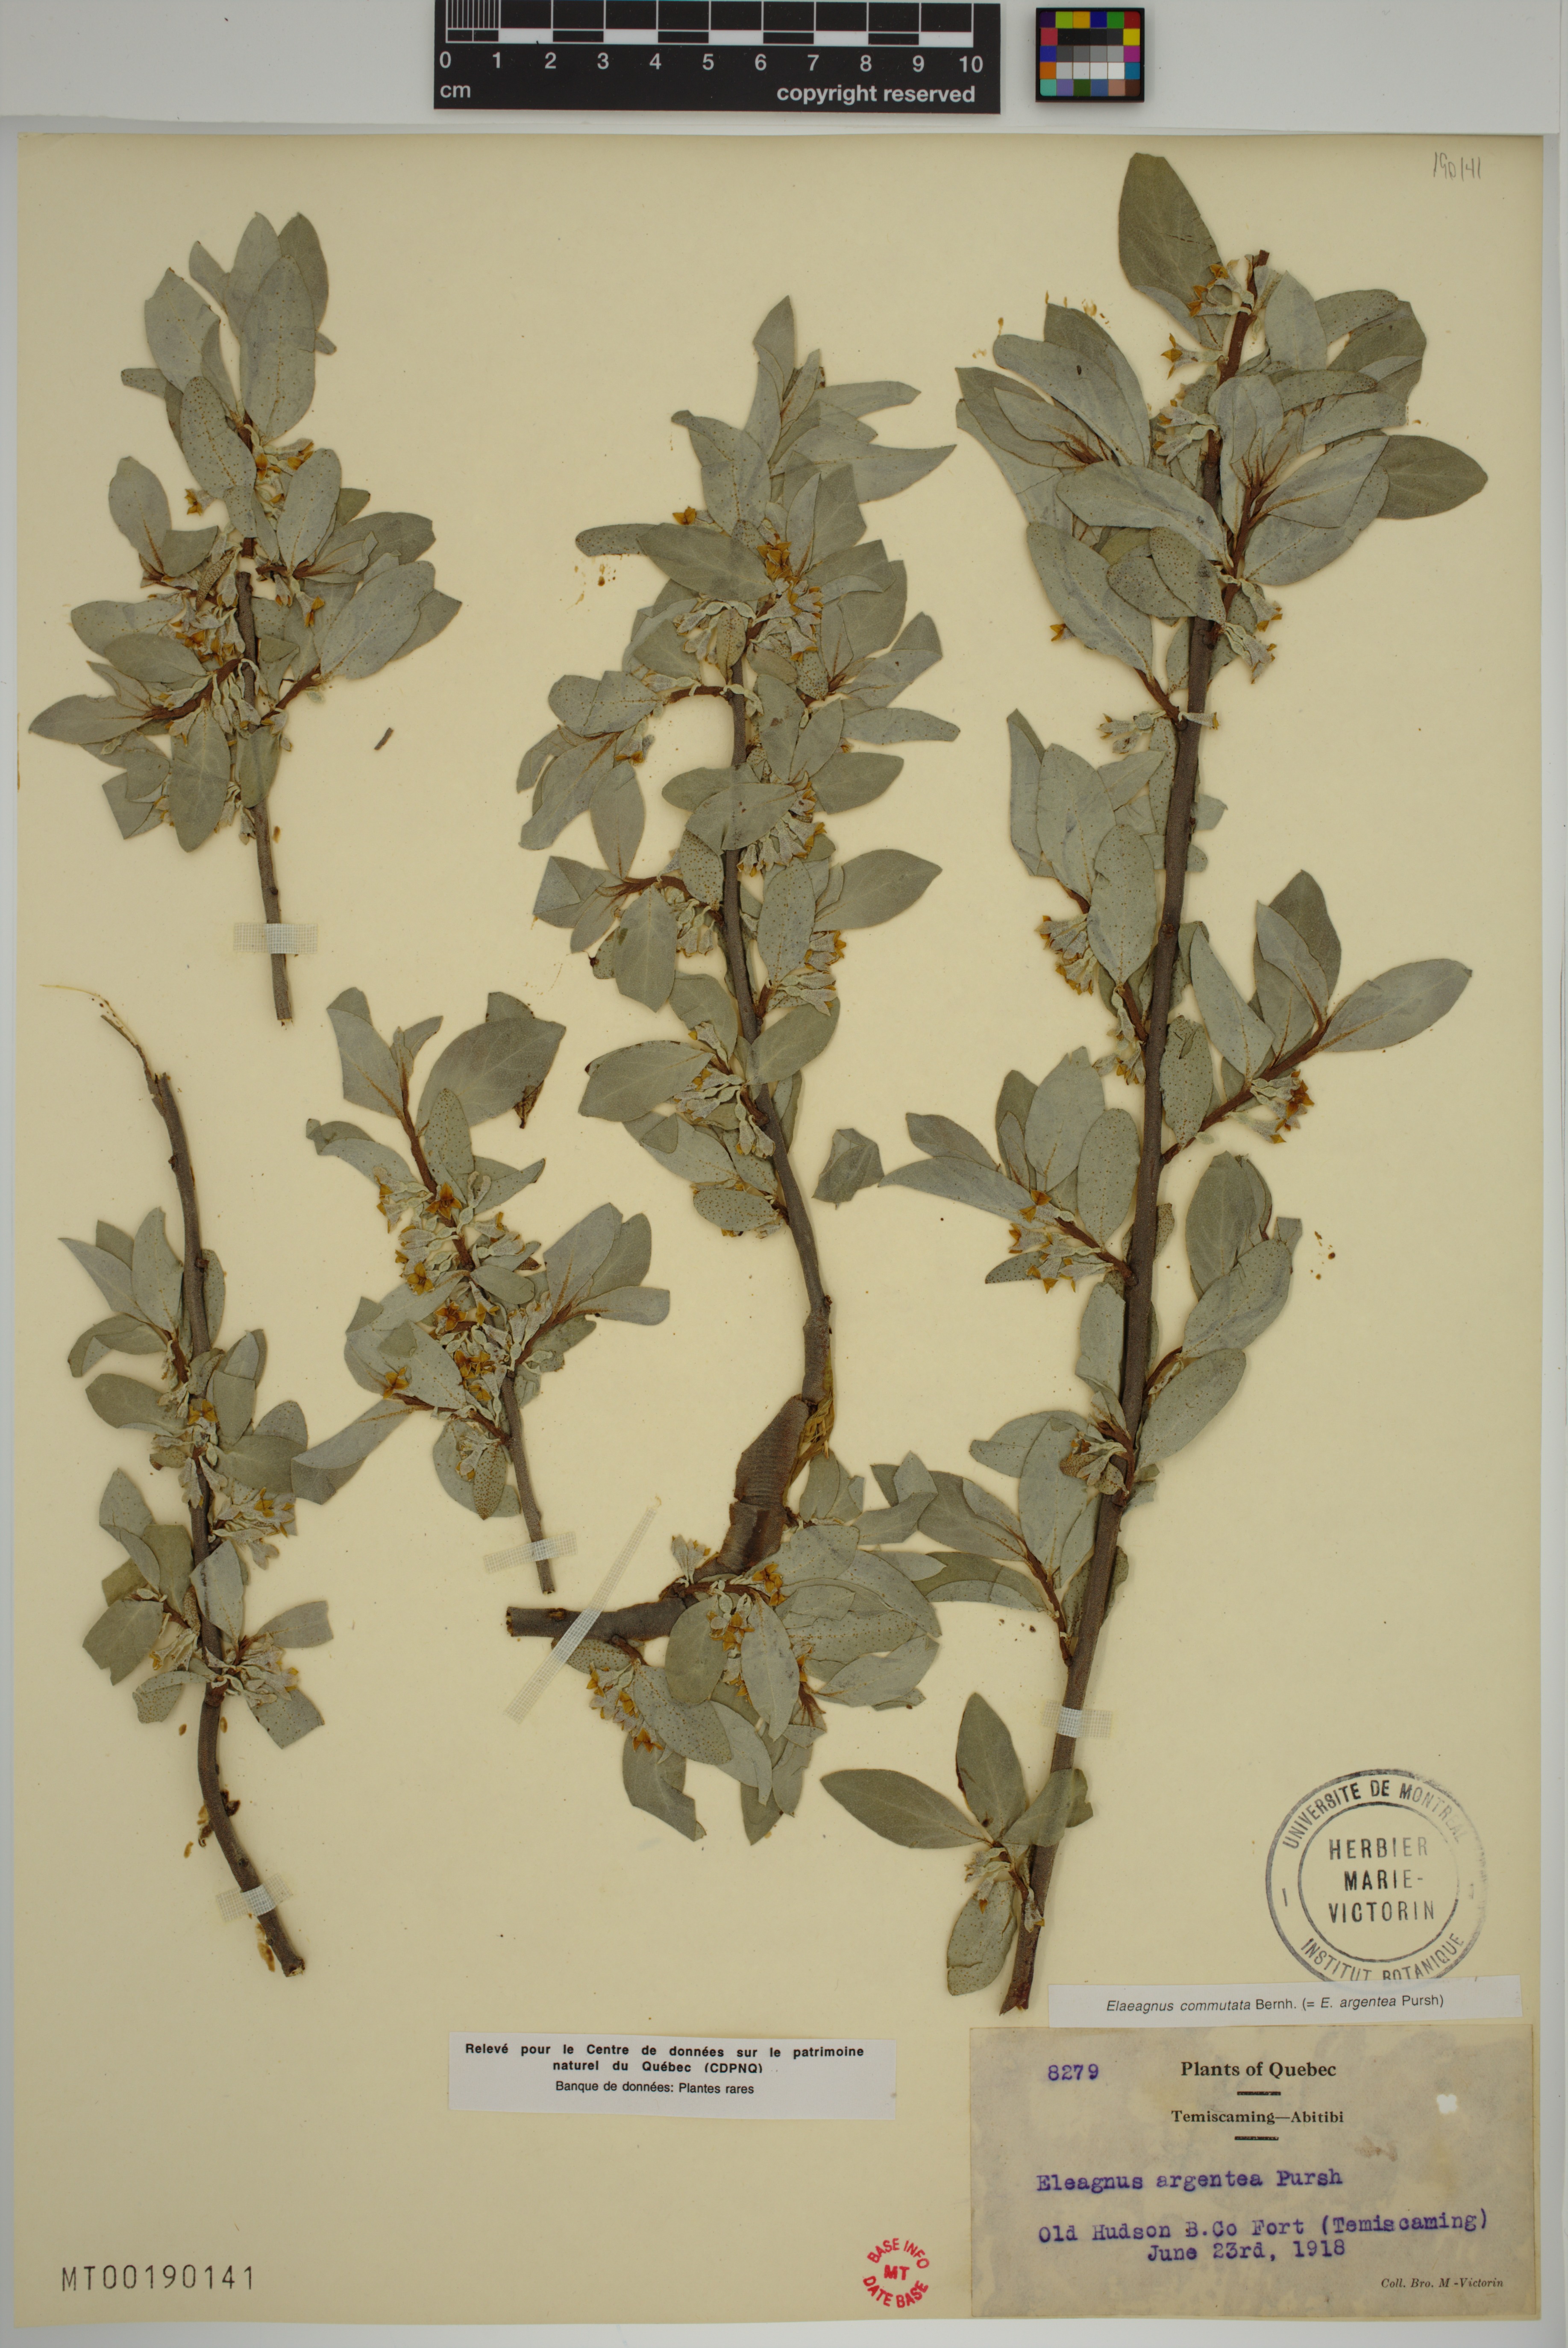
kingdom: Plantae
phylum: Tracheophyta
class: Magnoliopsida
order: Rosales
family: Elaeagnaceae
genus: Elaeagnus
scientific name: Elaeagnus commutata
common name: Silverberry
